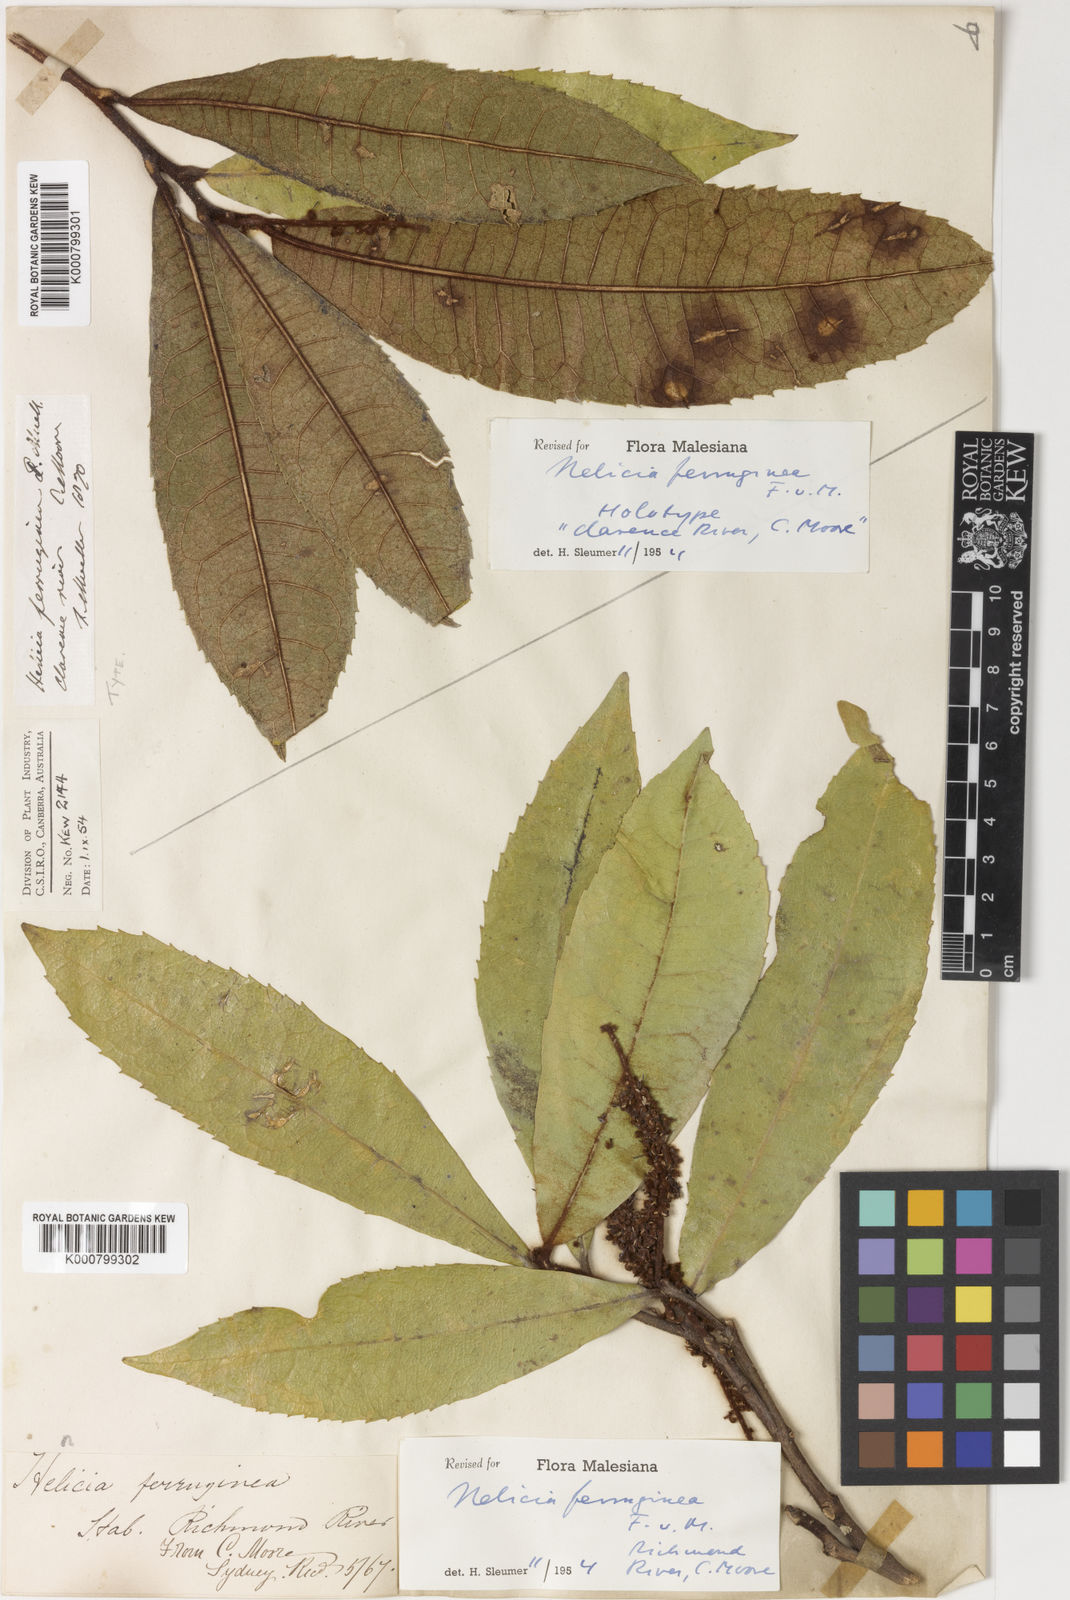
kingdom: Plantae
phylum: Tracheophyta
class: Magnoliopsida
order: Proteales
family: Proteaceae
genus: Helicia
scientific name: Helicia ferruginea
